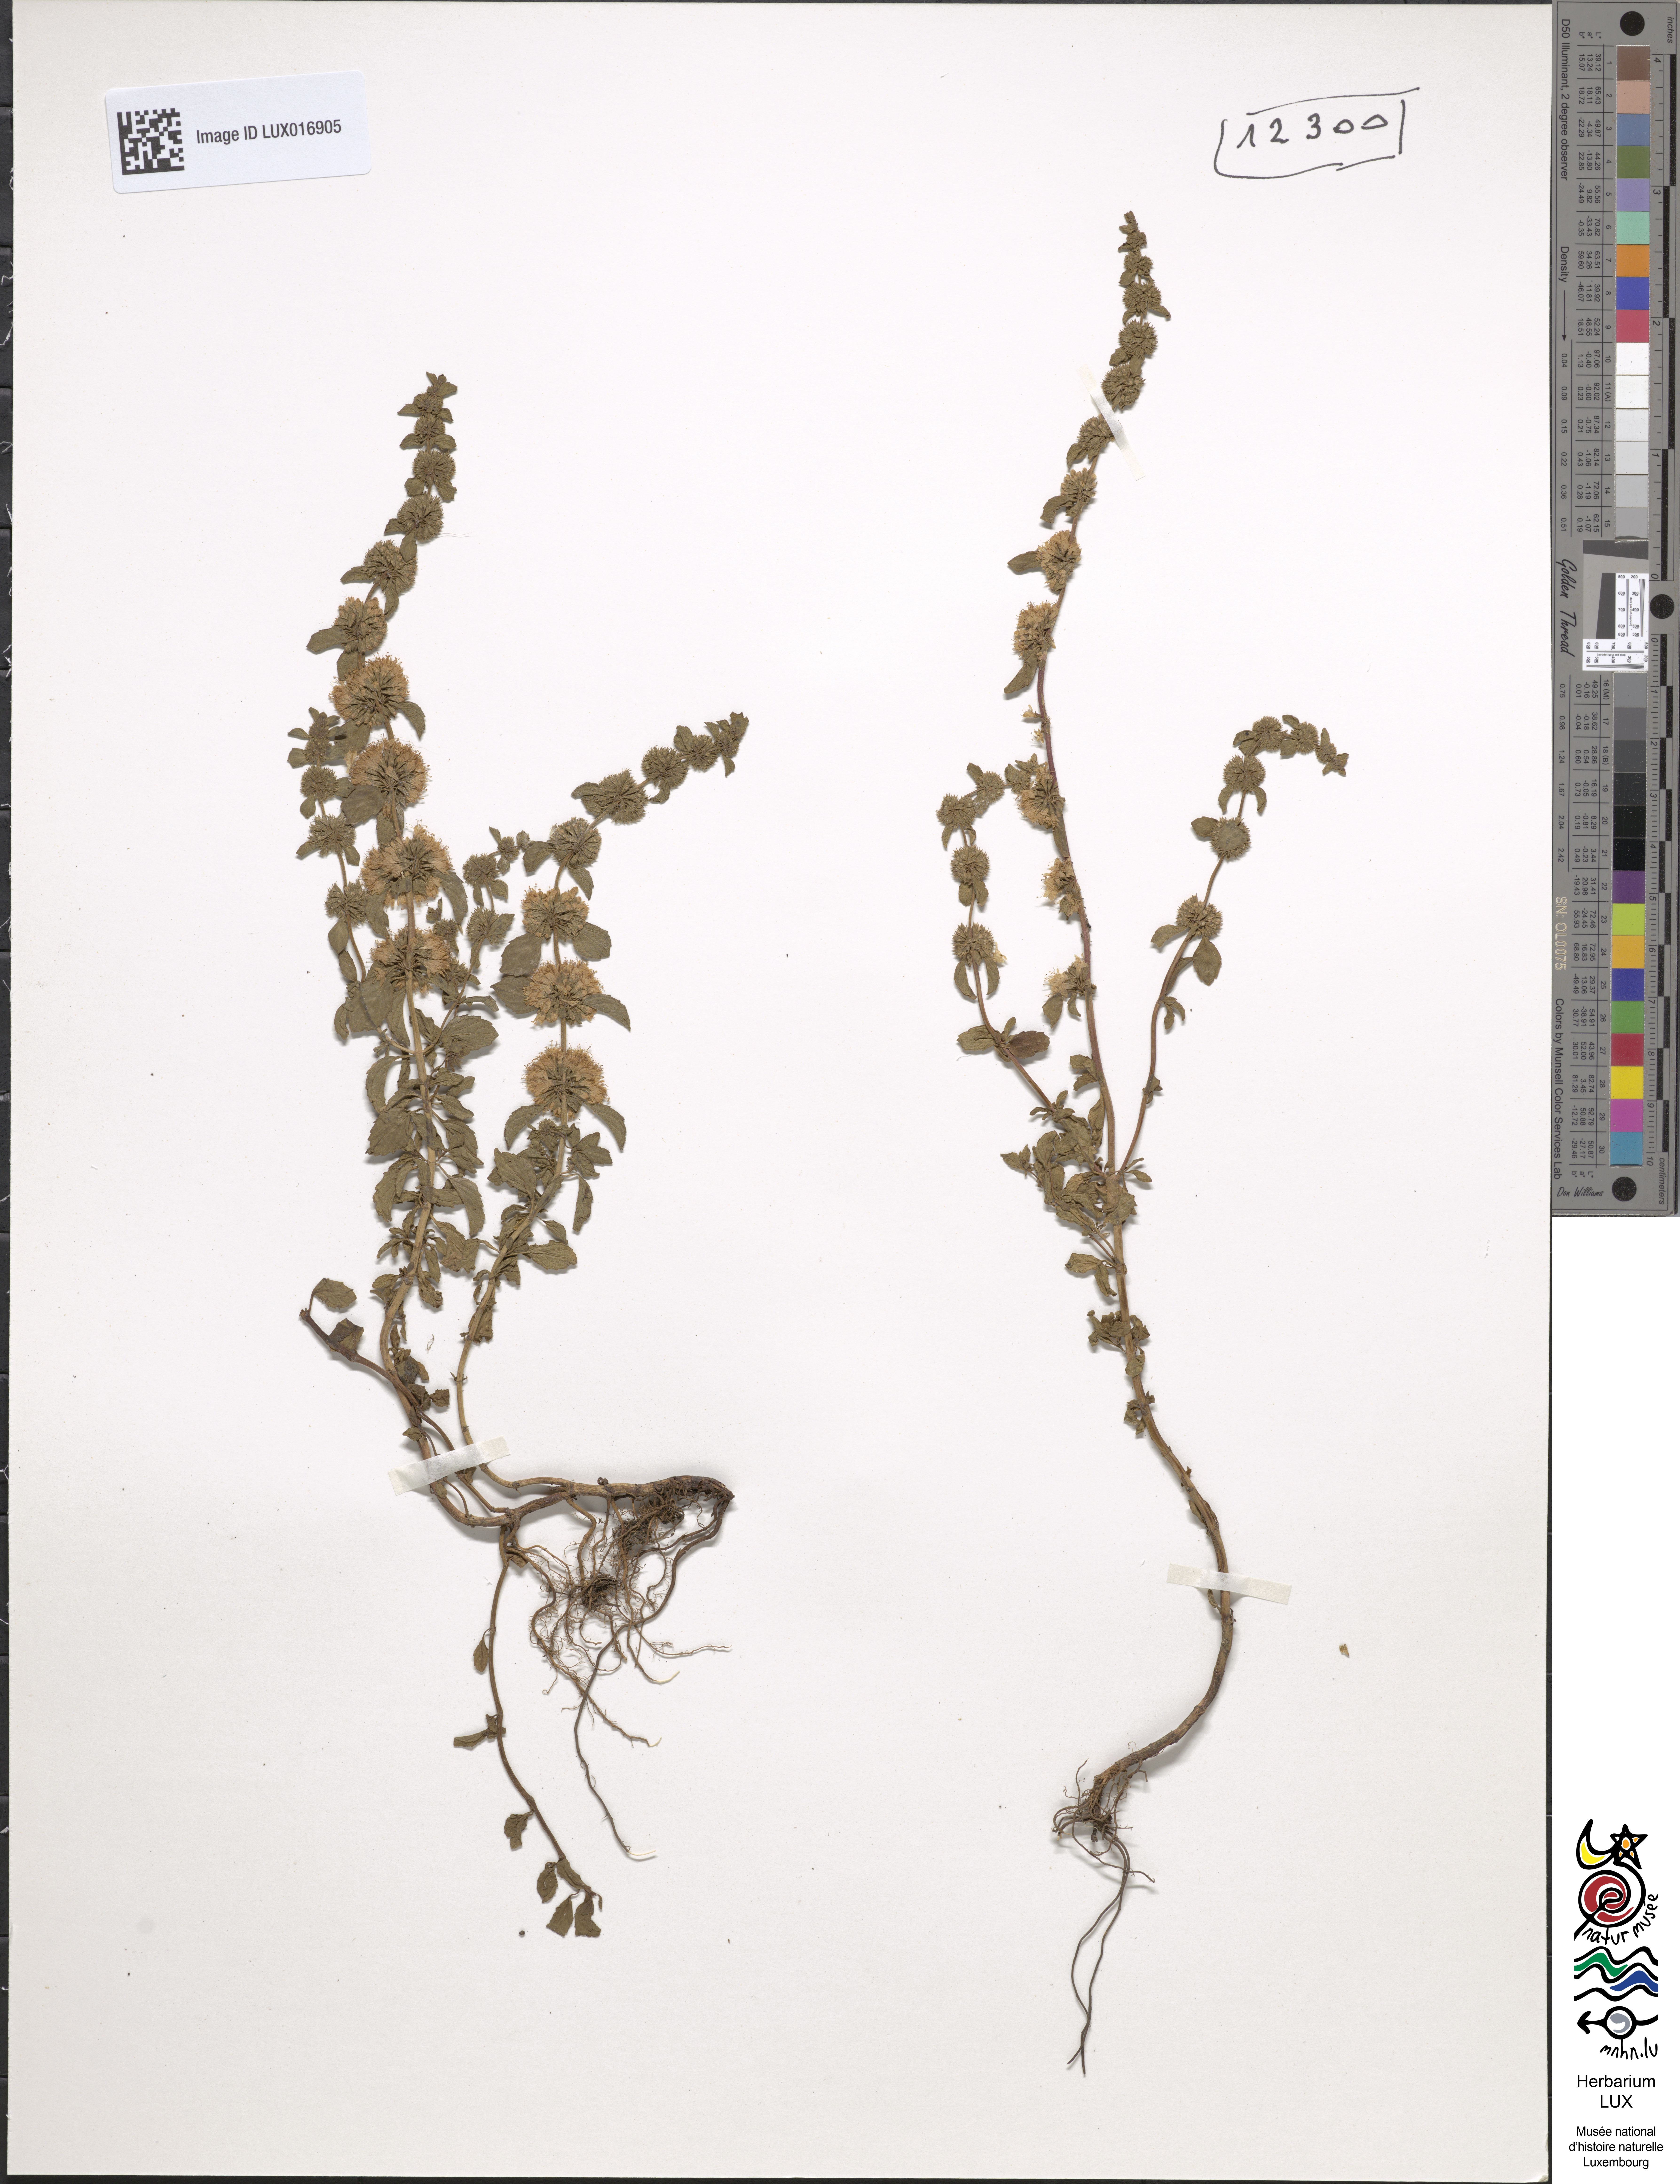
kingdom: Plantae
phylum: Tracheophyta
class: Magnoliopsida
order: Lamiales
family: Lamiaceae
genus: Mentha
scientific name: Mentha pulegium
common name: Pennyroyal
